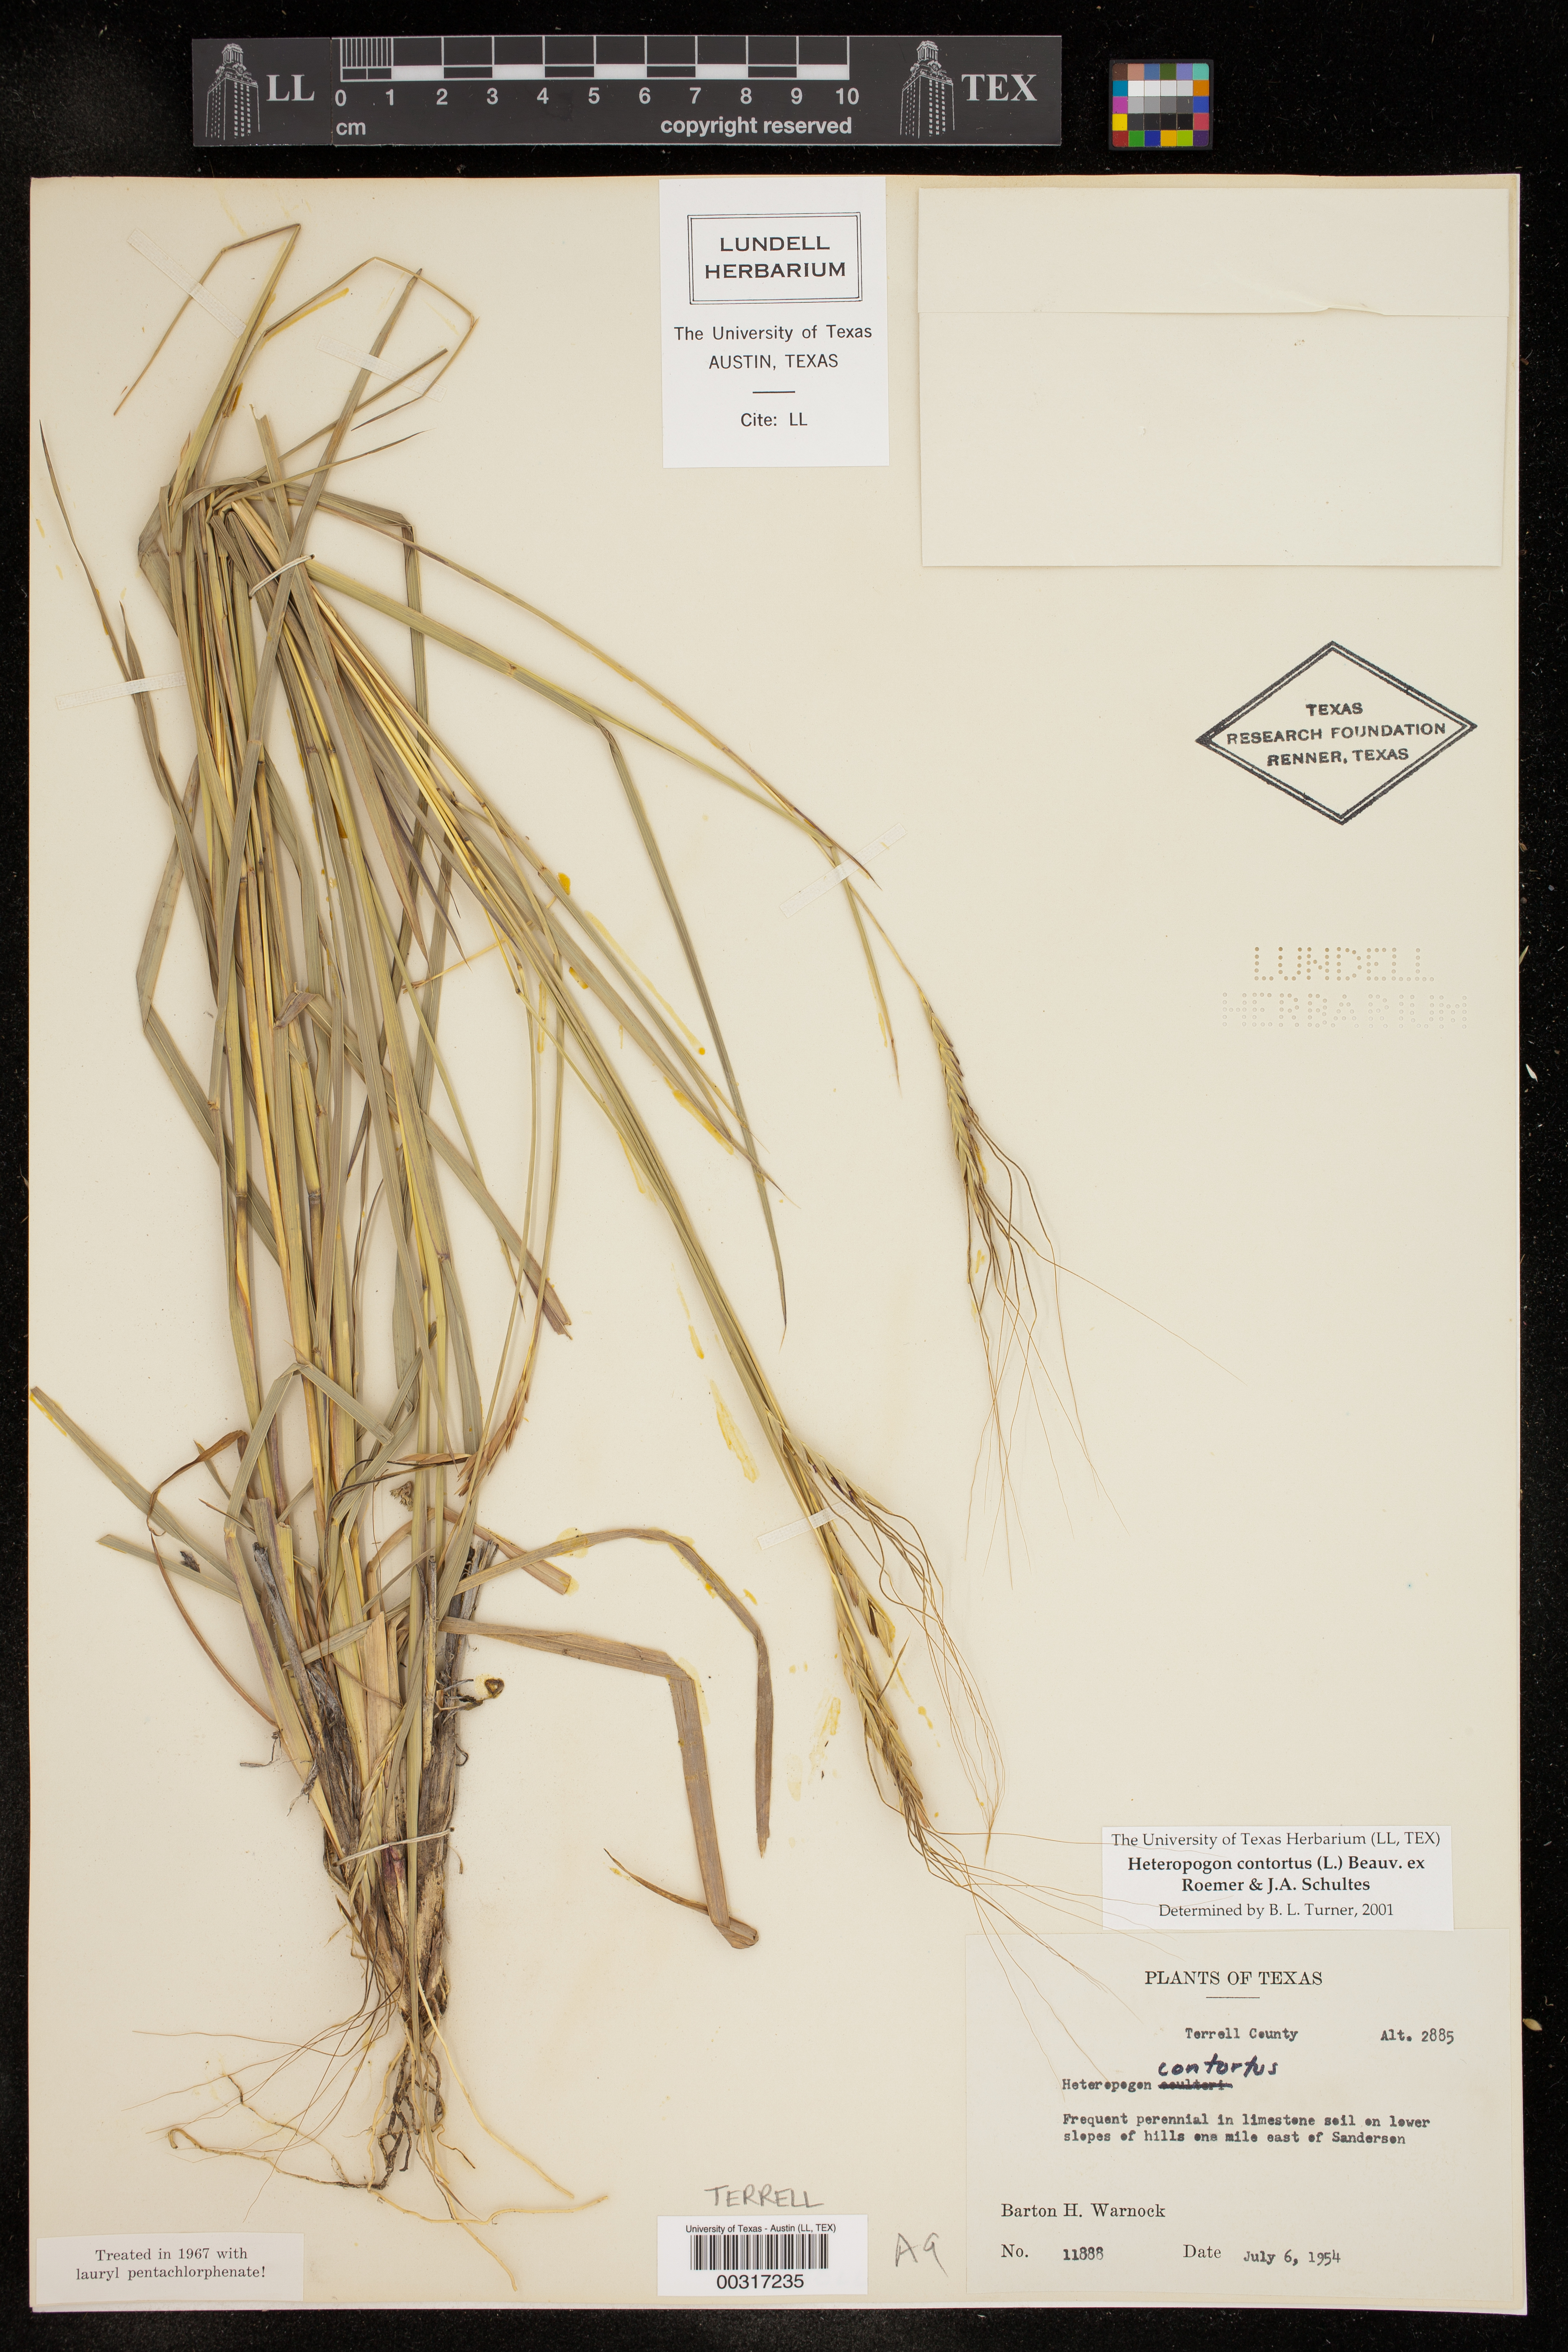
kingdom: Plantae
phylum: Tracheophyta
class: Liliopsida
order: Poales
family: Poaceae
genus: Heteropogon
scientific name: Heteropogon contortus
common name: Tanglehead
